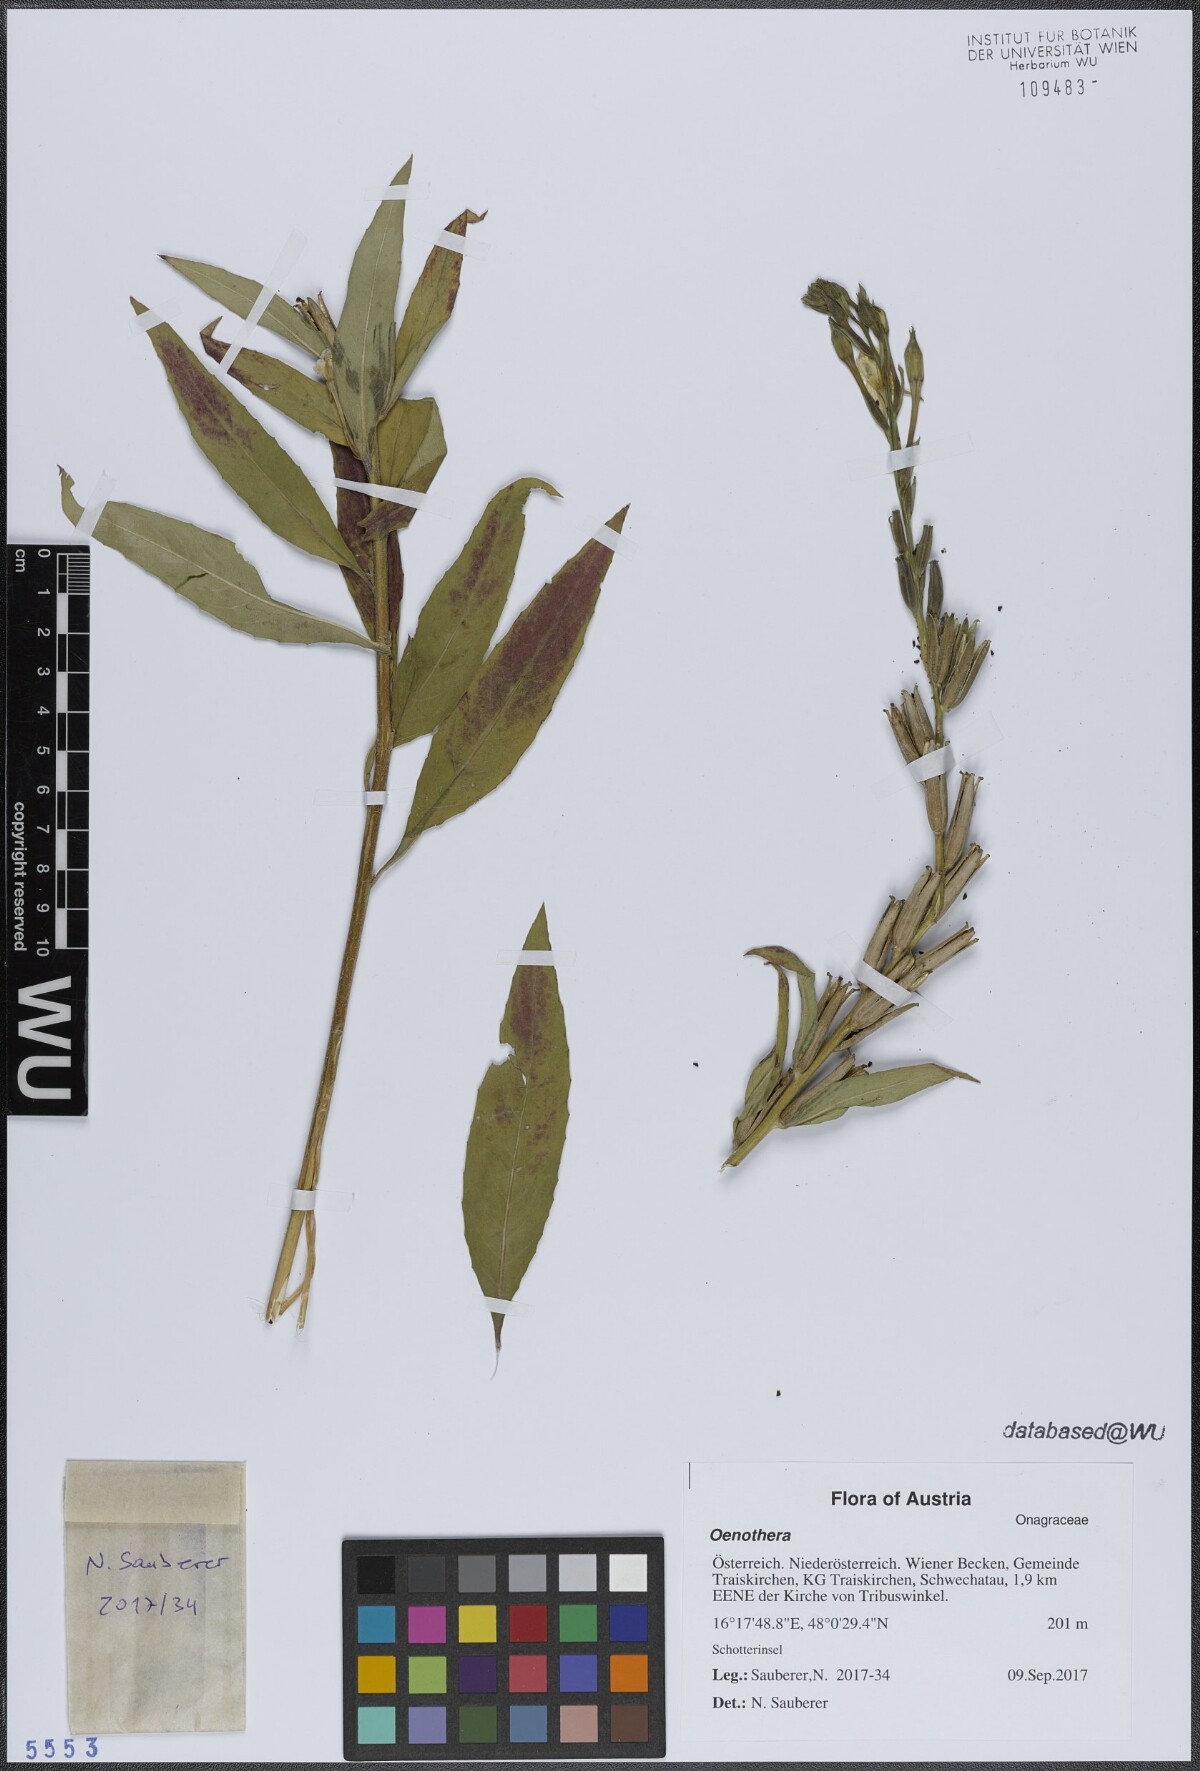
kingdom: Plantae
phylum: Tracheophyta
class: Magnoliopsida
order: Myrtales
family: Onagraceae
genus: Oenothera
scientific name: Oenothera
